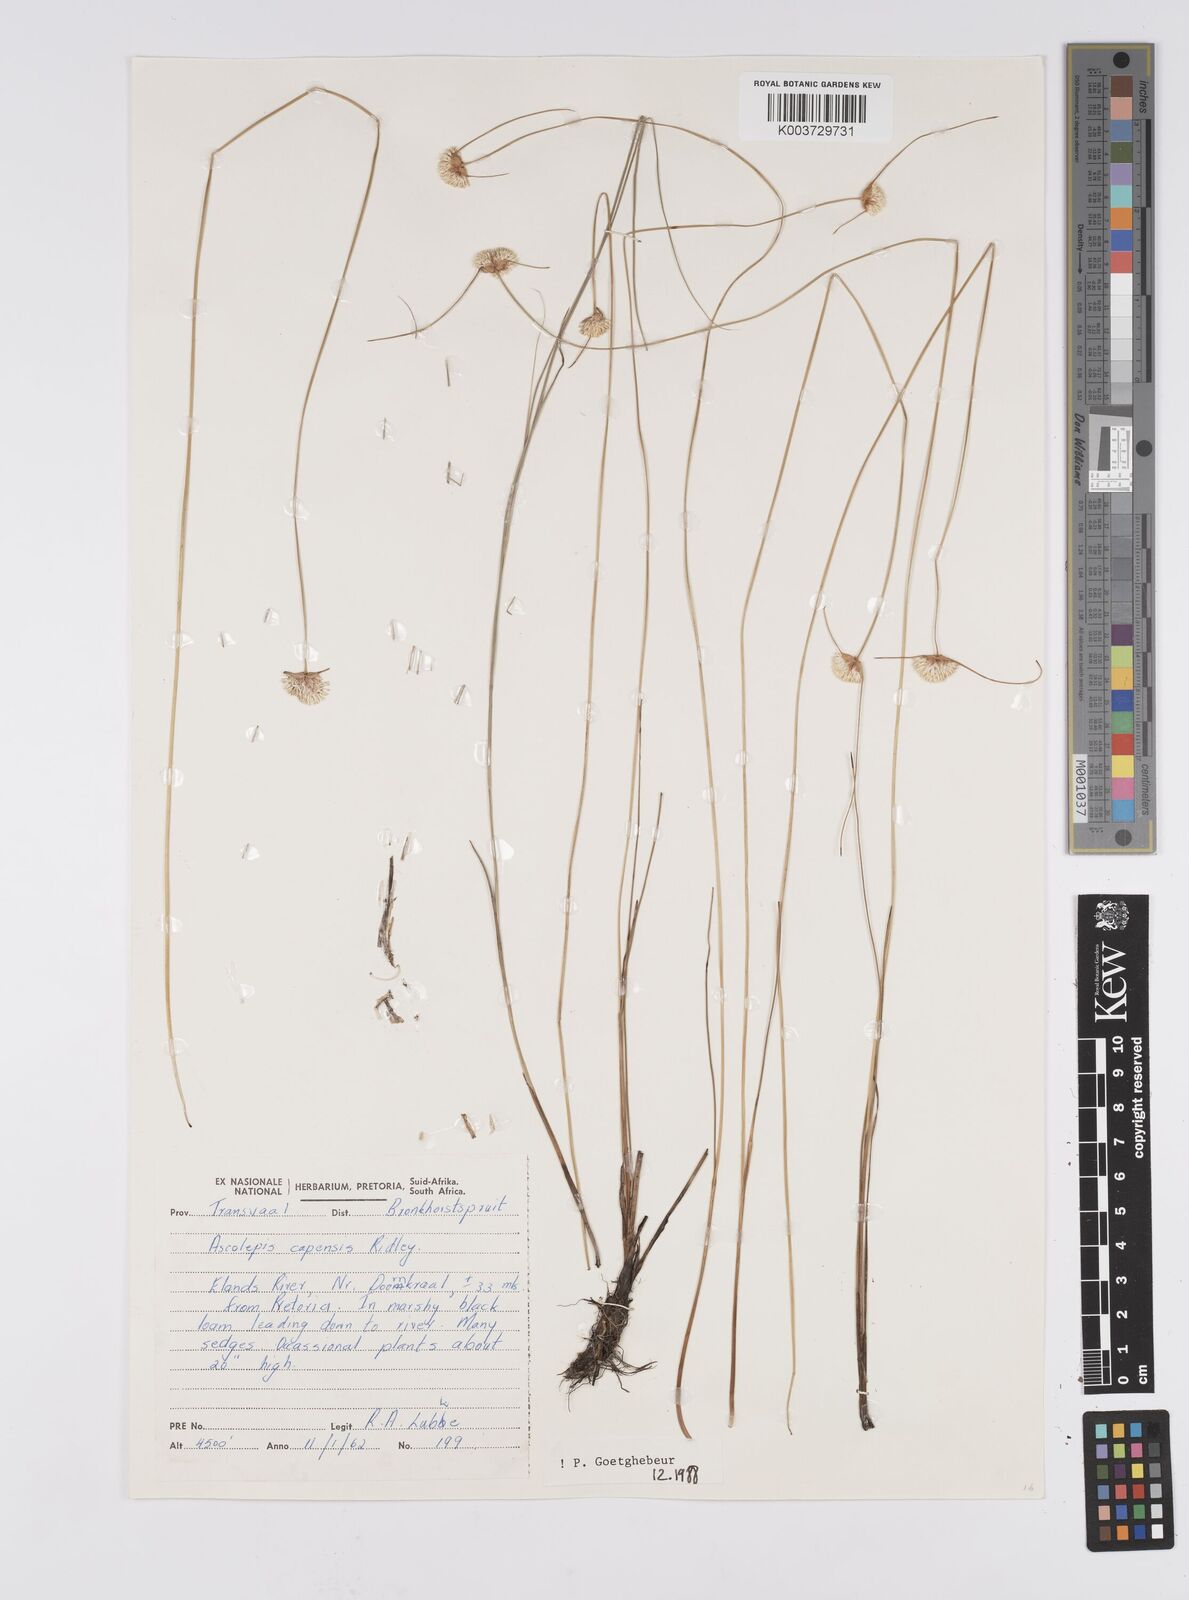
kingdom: Plantae
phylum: Tracheophyta
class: Liliopsida
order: Poales
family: Cyperaceae
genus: Cyperus
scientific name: Cyperus capensis
